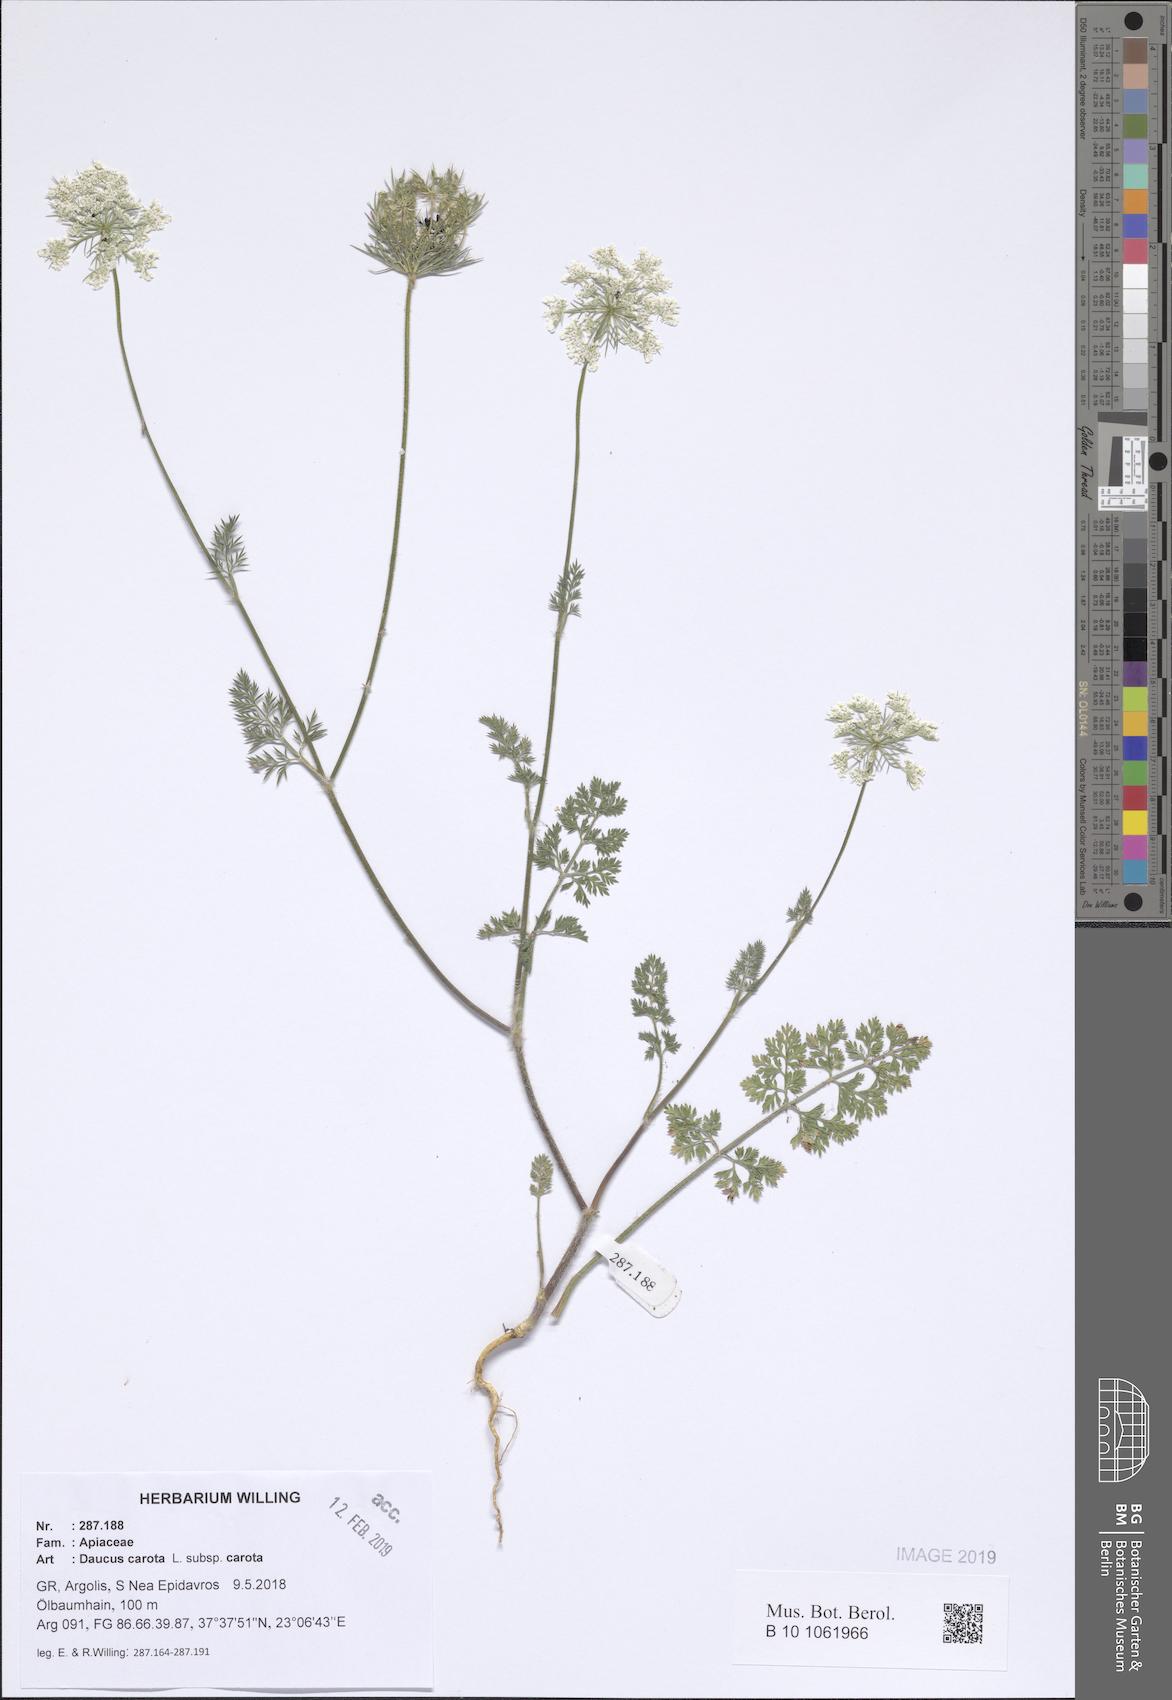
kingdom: Plantae
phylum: Tracheophyta
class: Magnoliopsida
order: Apiales
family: Apiaceae
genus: Daucus
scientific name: Daucus carota
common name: Wild carrot
